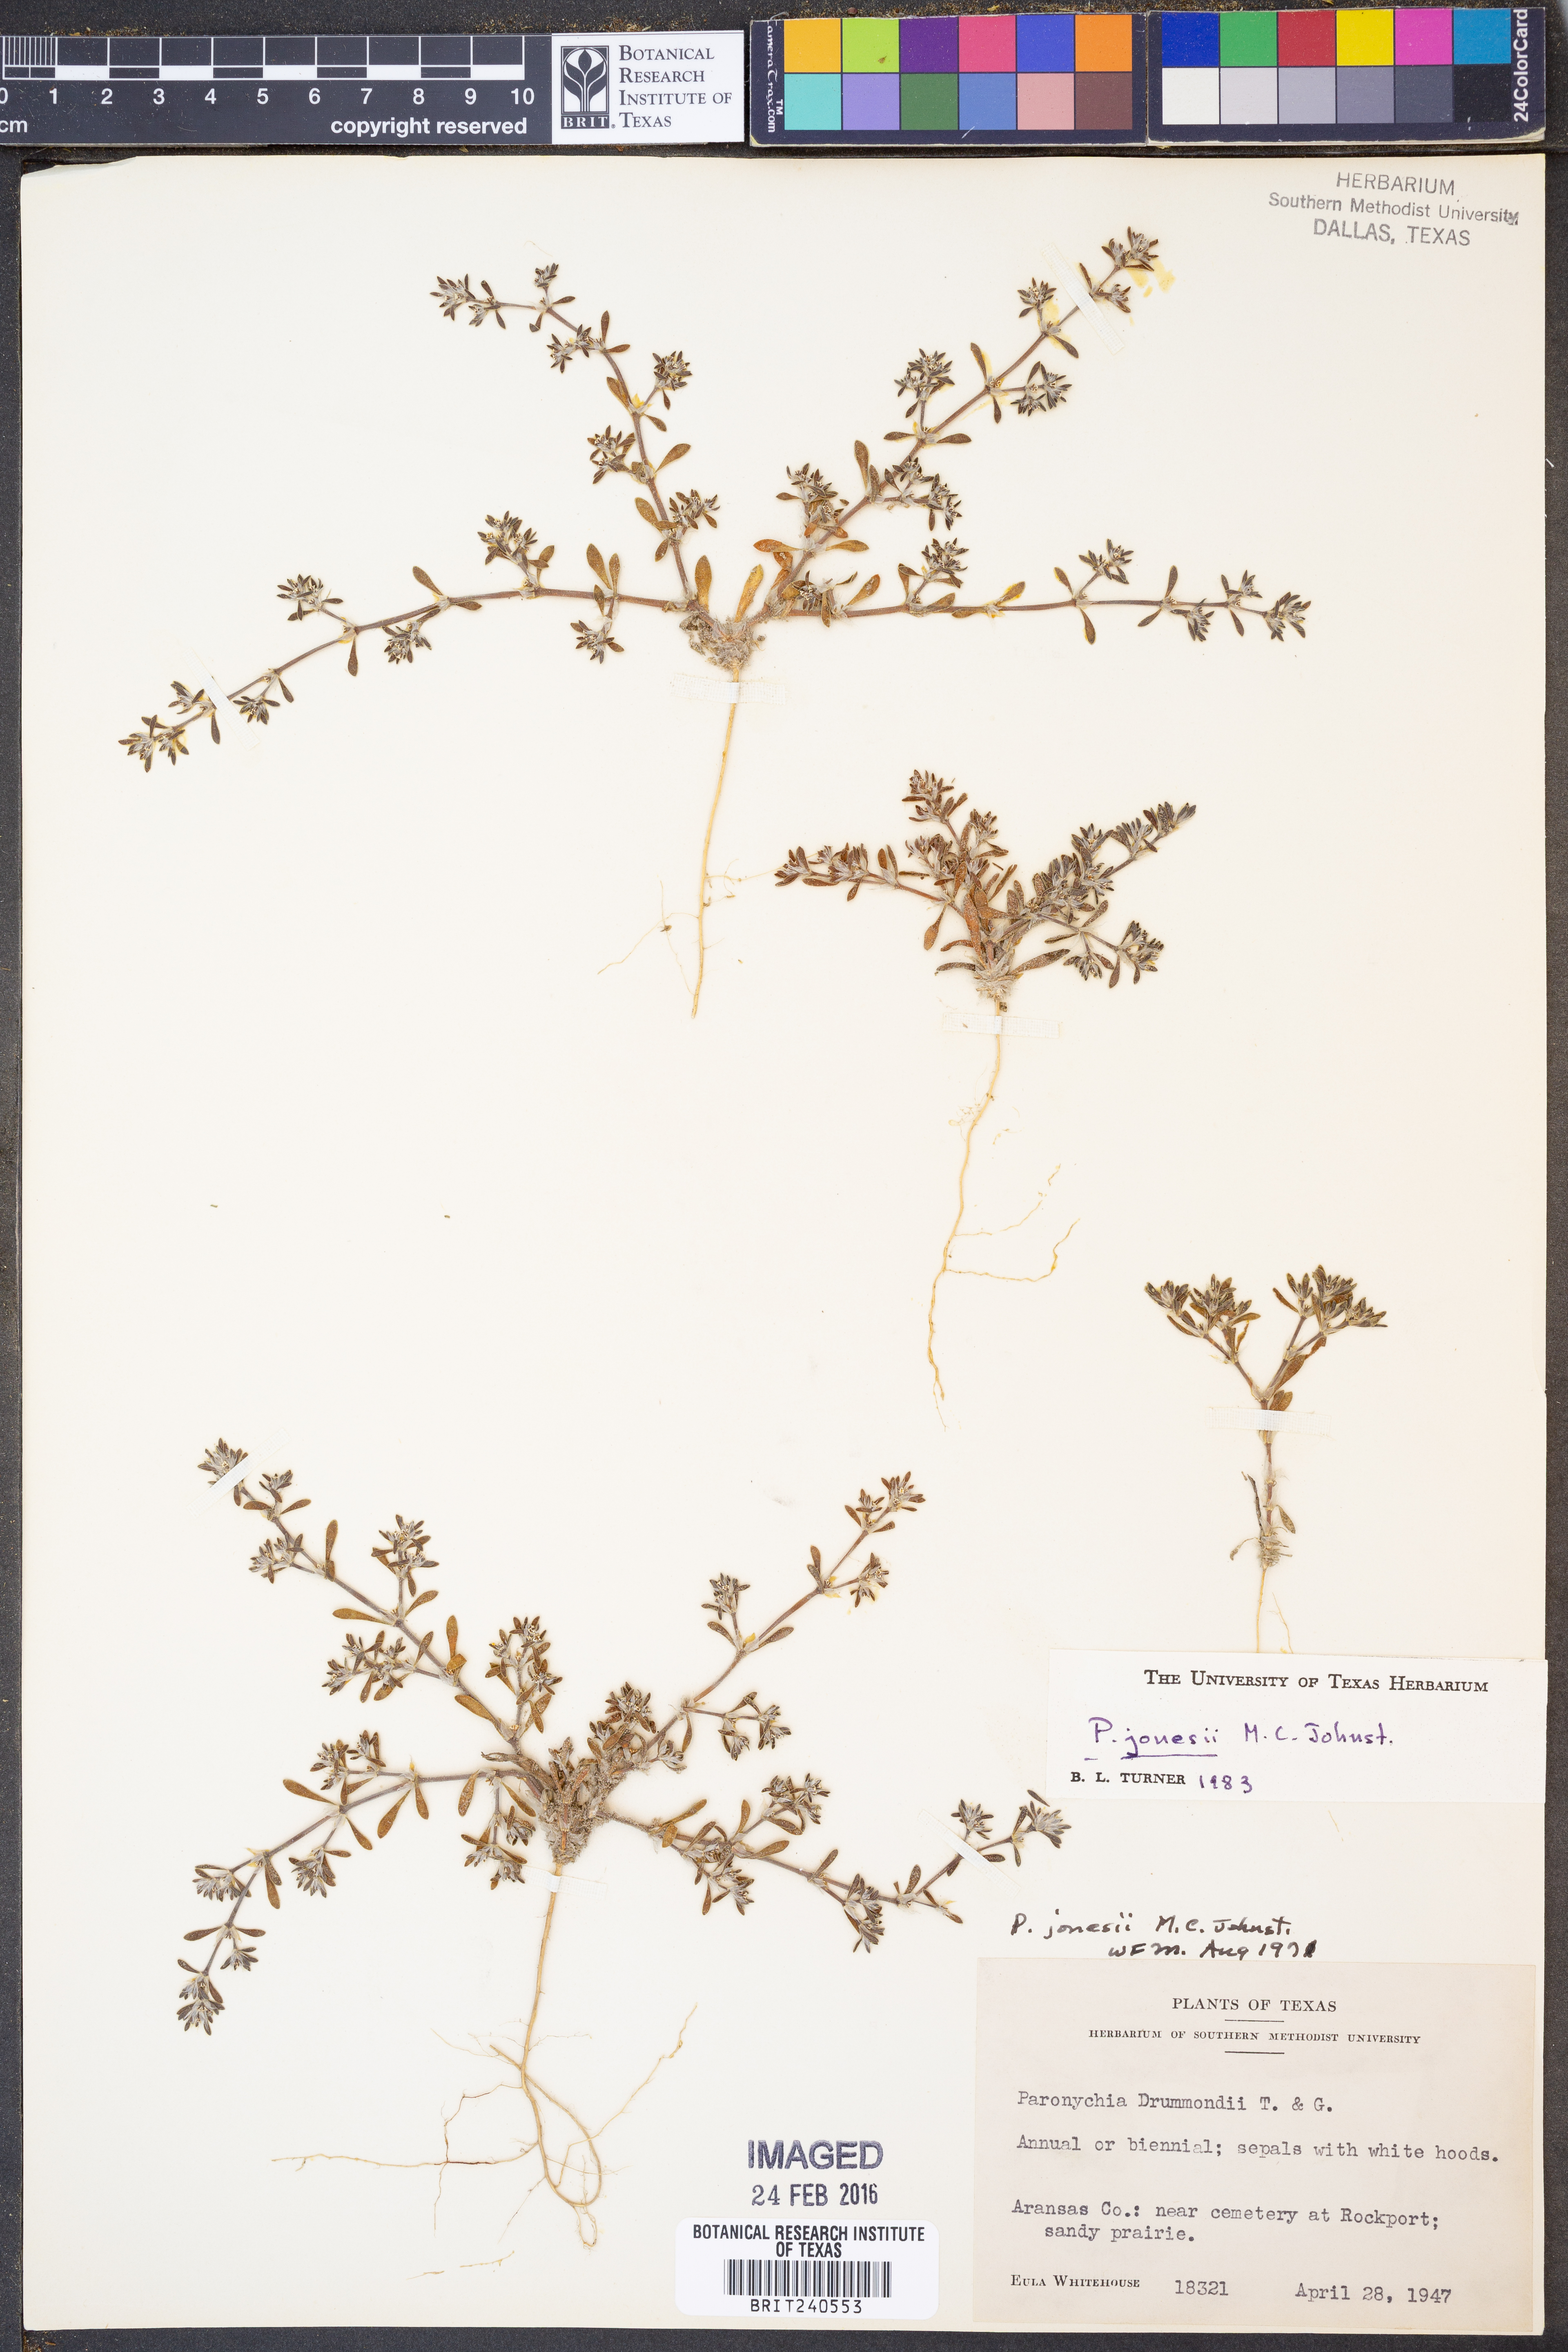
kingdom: Plantae
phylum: Tracheophyta
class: Magnoliopsida
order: Caryophyllales
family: Caryophyllaceae
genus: Paronychia
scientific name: Paronychia jonesii
